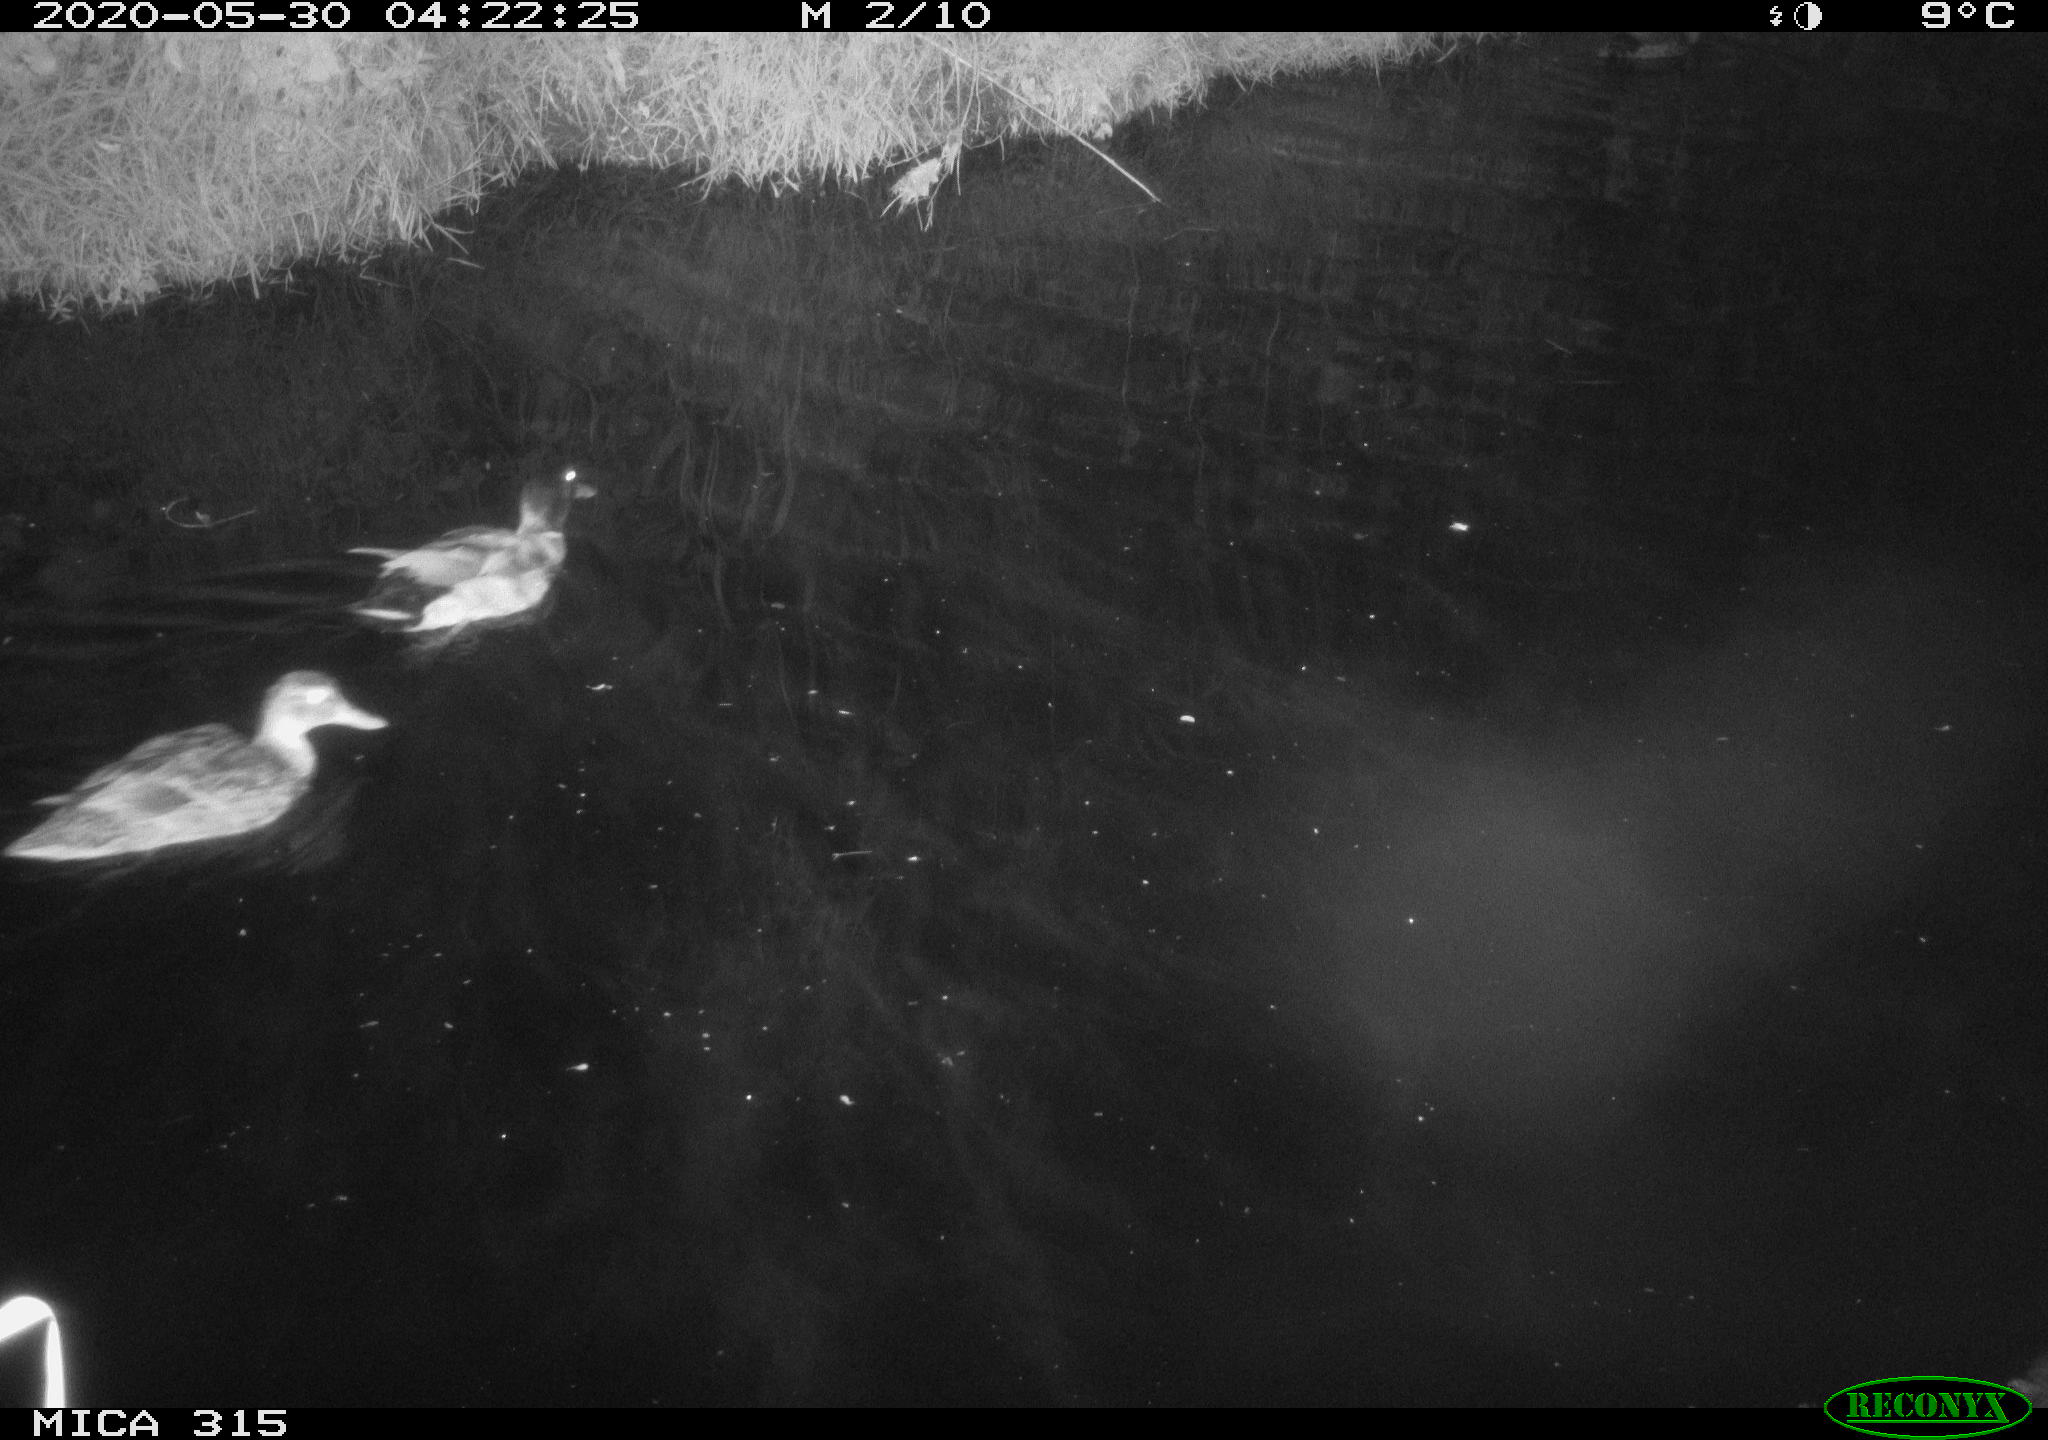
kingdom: Animalia
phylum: Chordata
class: Aves
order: Anseriformes
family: Anatidae
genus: Anas
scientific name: Anas platyrhynchos
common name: Mallard
